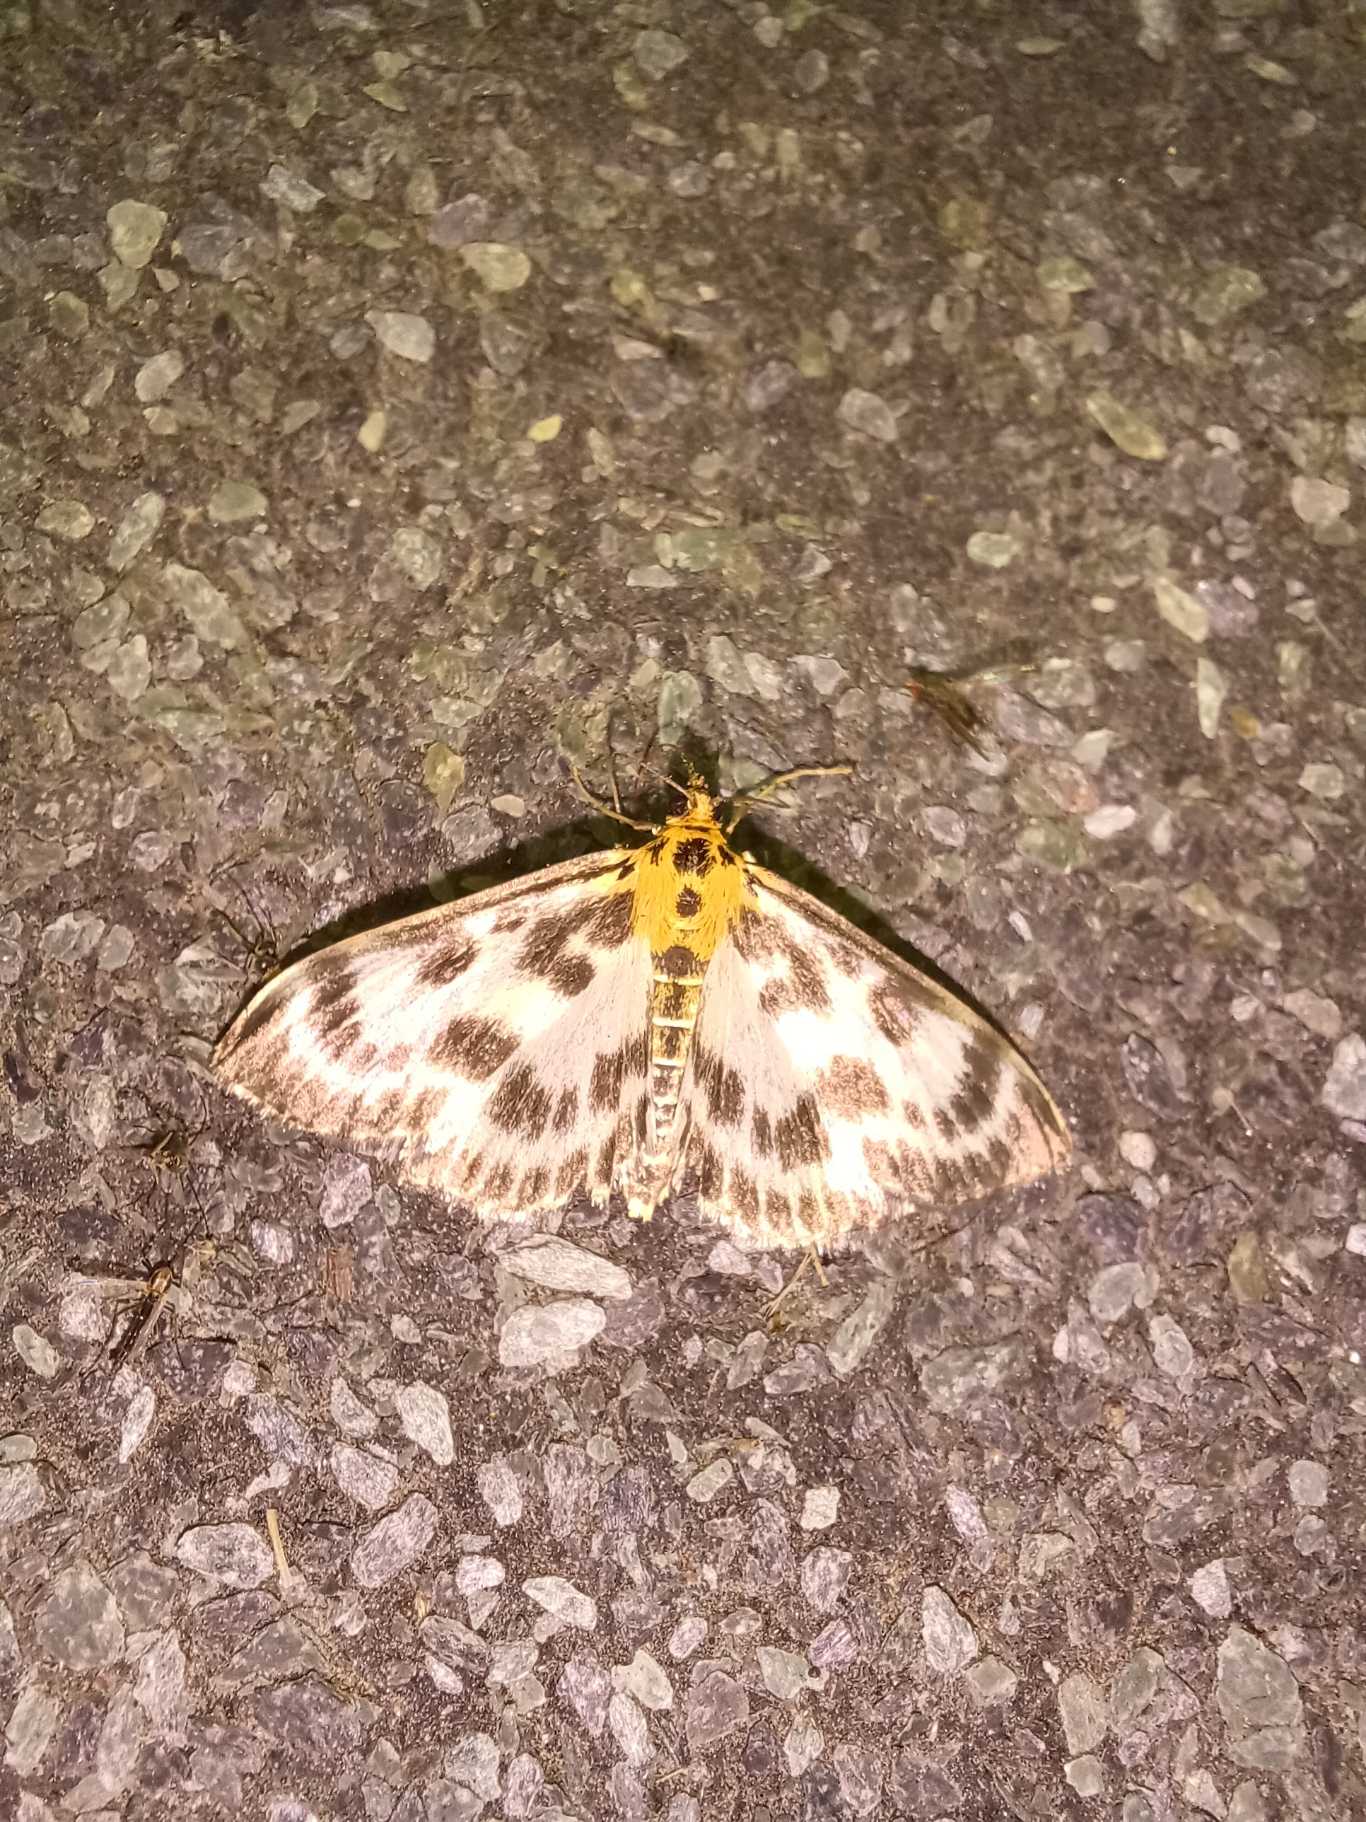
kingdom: Animalia
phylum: Arthropoda
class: Insecta
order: Lepidoptera
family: Crambidae
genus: Anania
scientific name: Anania hortulata
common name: Nældehalvmøl
